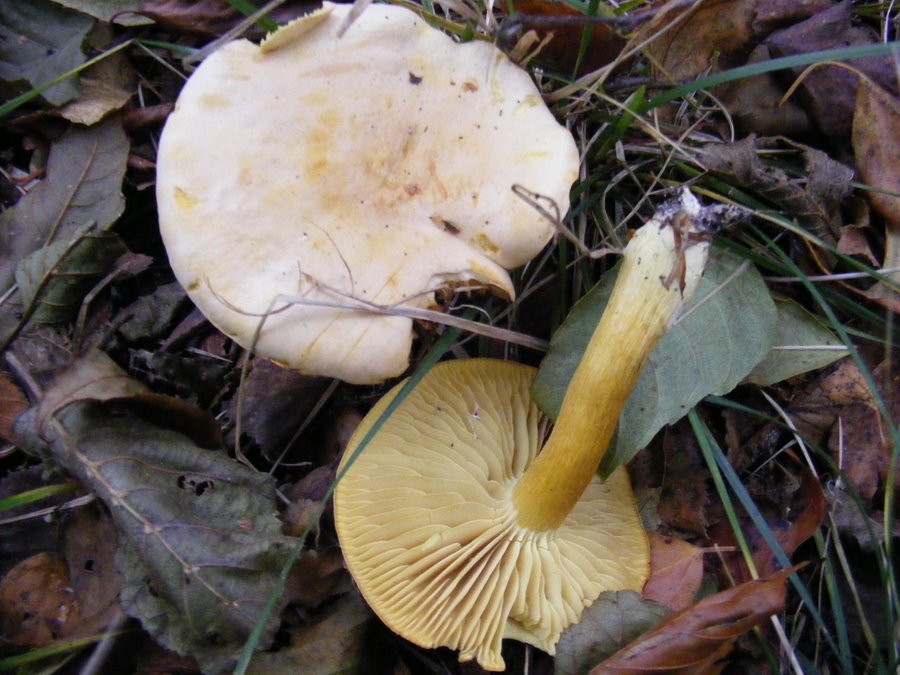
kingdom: Fungi
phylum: Basidiomycota
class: Agaricomycetes
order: Agaricales
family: Tricholomataceae
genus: Tricholoma
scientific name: Tricholoma sulphureum
